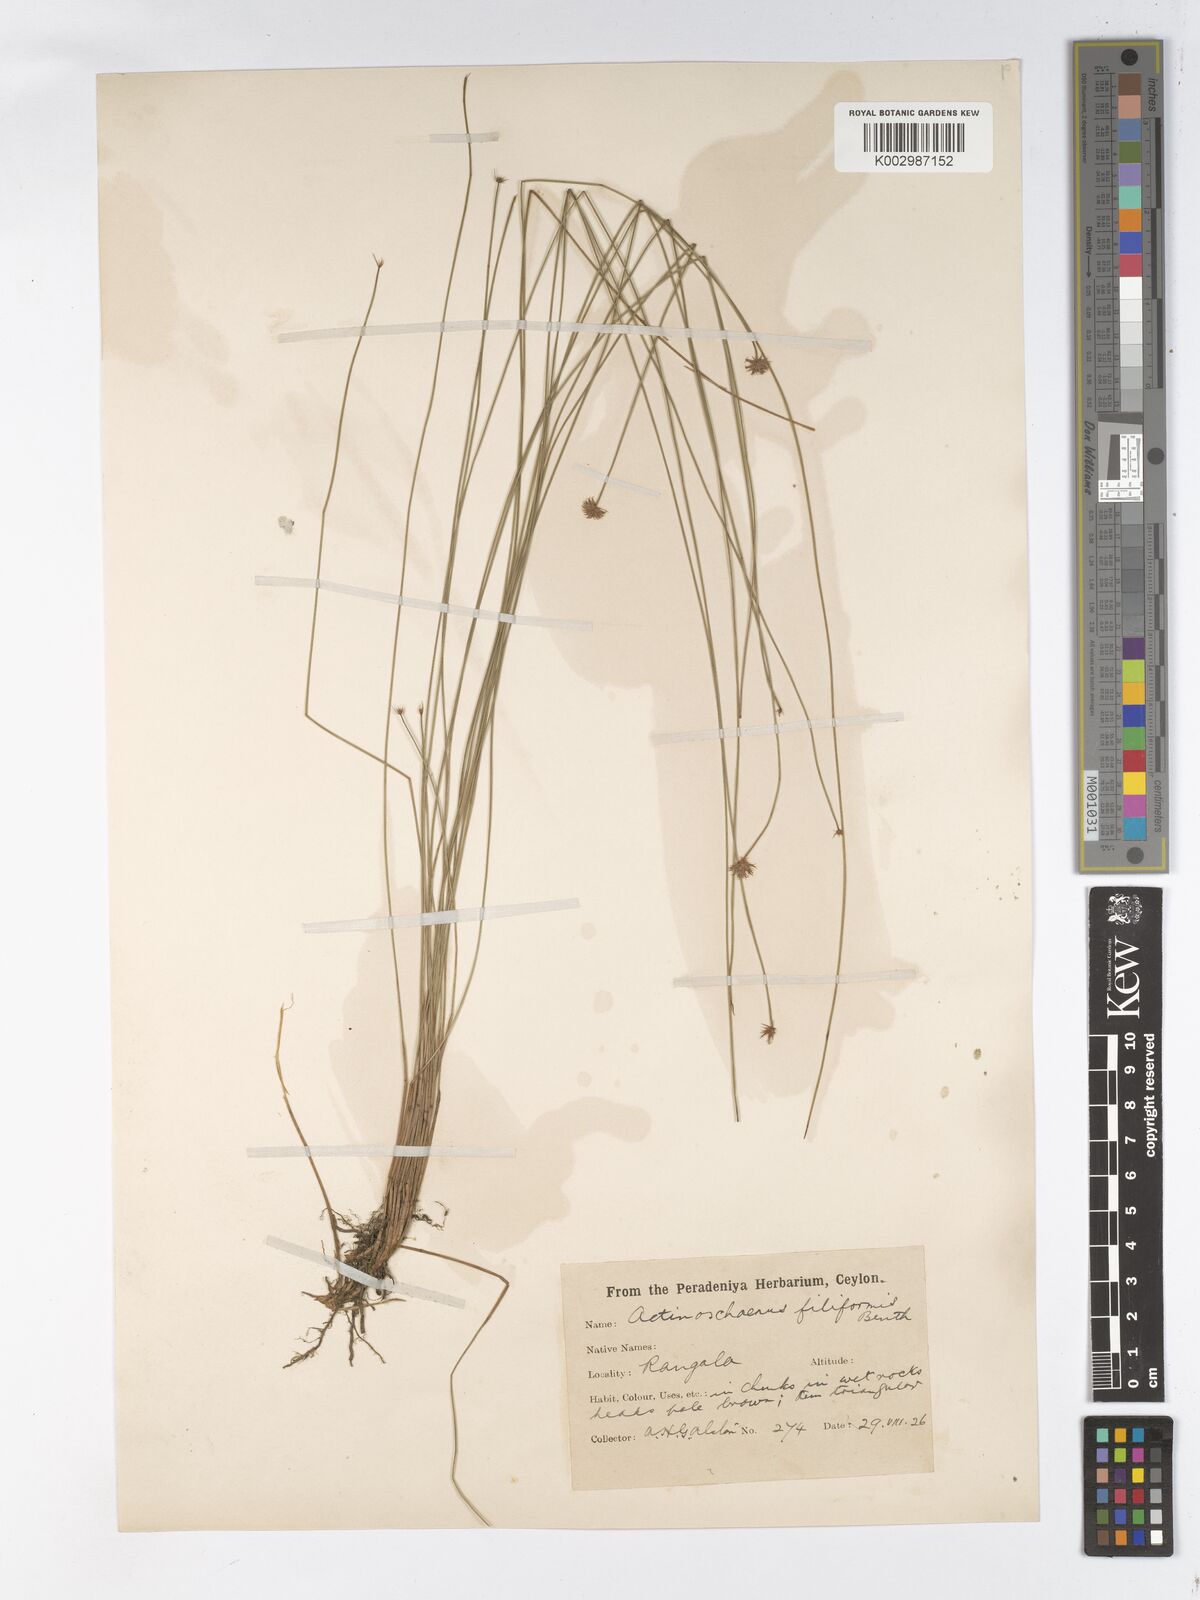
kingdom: Plantae
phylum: Tracheophyta
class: Liliopsida
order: Poales
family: Cyperaceae
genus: Actinoschoenus
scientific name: Actinoschoenus
